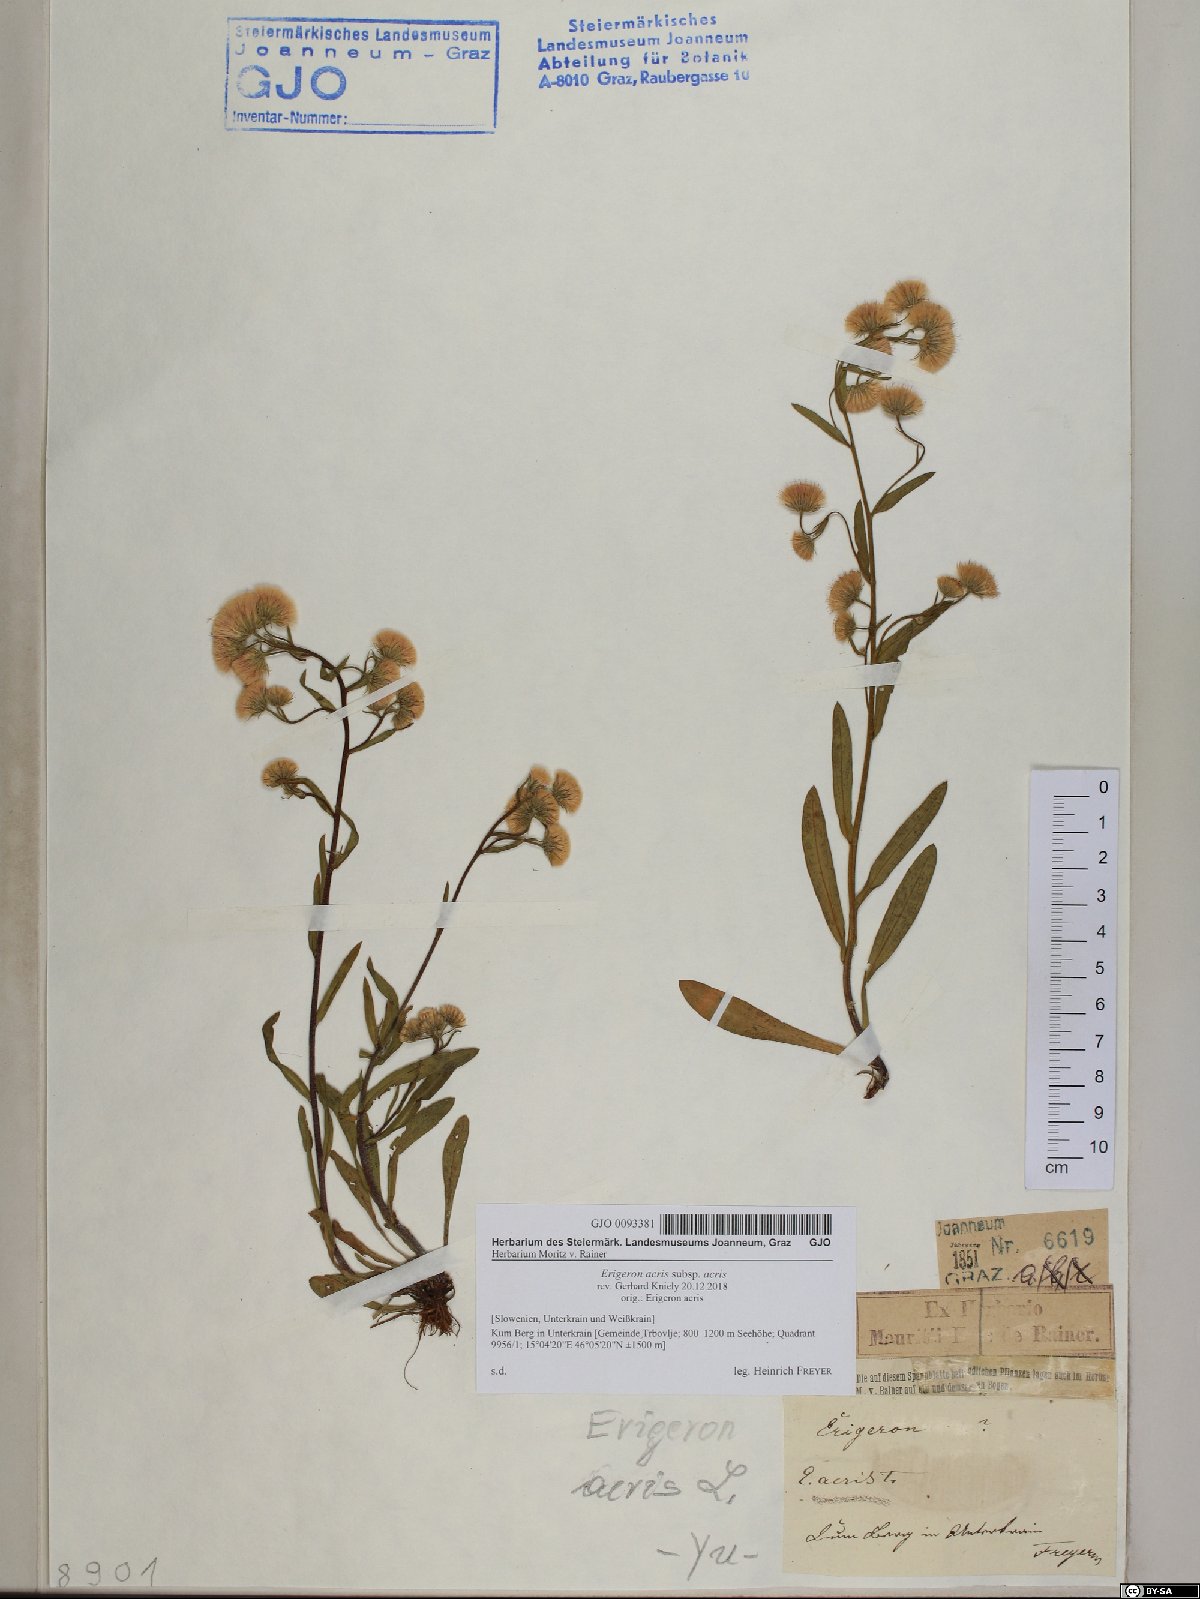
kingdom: Plantae
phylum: Tracheophyta
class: Magnoliopsida
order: Asterales
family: Asteraceae
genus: Erigeron
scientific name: Erigeron acris
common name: Blue fleabane
